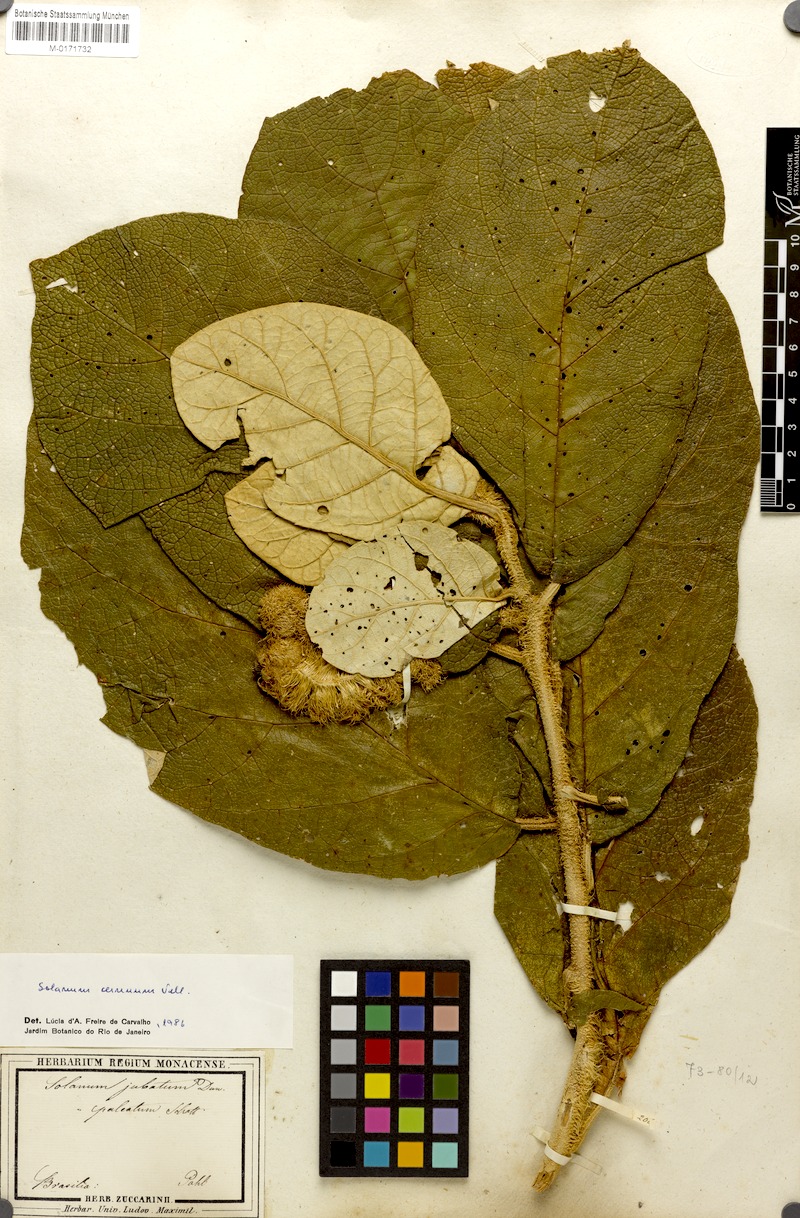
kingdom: Plantae
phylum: Tracheophyta
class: Magnoliopsida
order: Solanales
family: Solanaceae
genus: Solanum
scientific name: Solanum cernuum
